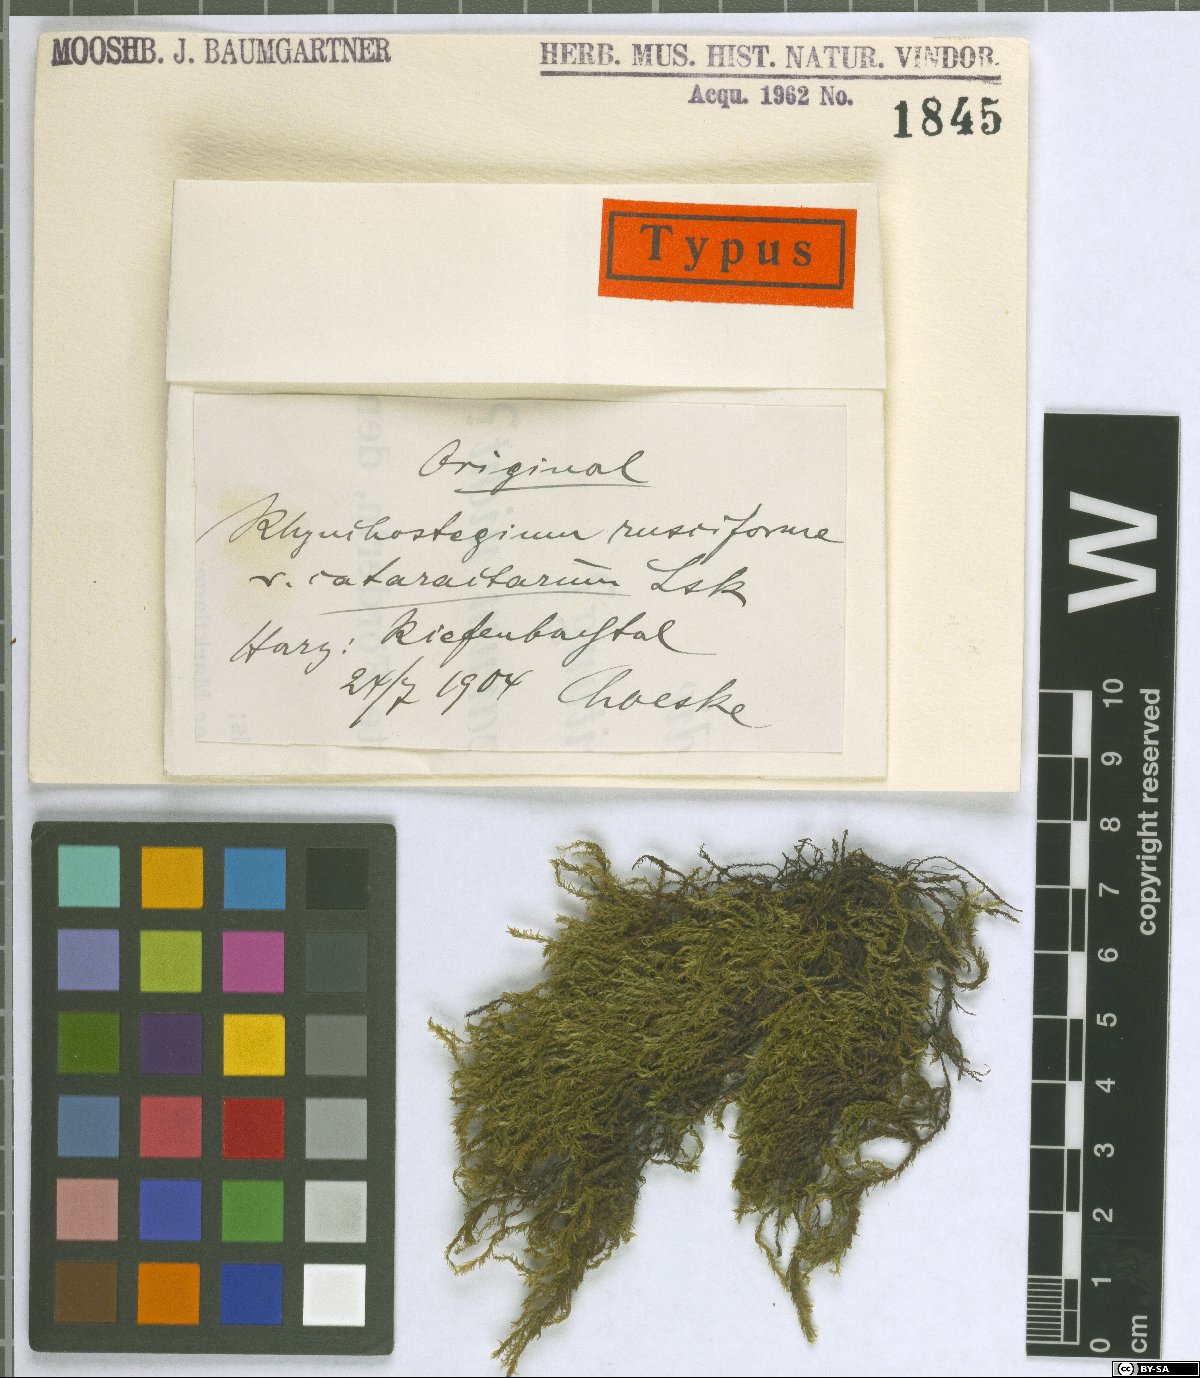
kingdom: Plantae
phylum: Bryophyta
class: Bryopsida
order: Hypnales
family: Brachytheciaceae
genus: Rhynchostegium
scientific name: Rhynchostegium riparioides
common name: Platyhypnidium moss
